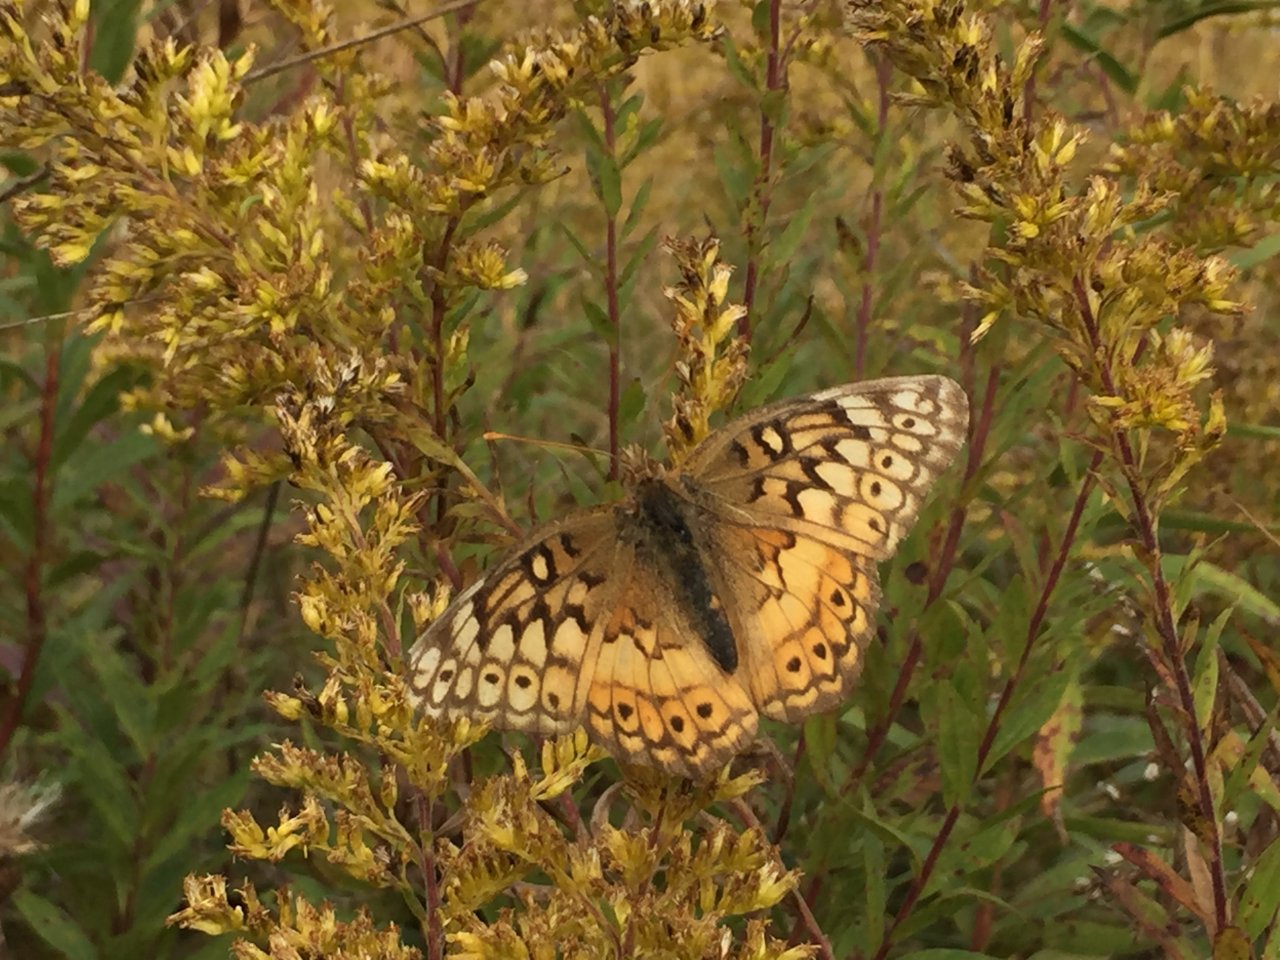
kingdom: Animalia
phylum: Arthropoda
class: Insecta
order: Lepidoptera
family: Nymphalidae
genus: Euptoieta
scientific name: Euptoieta claudia
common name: Variegated Fritillary
